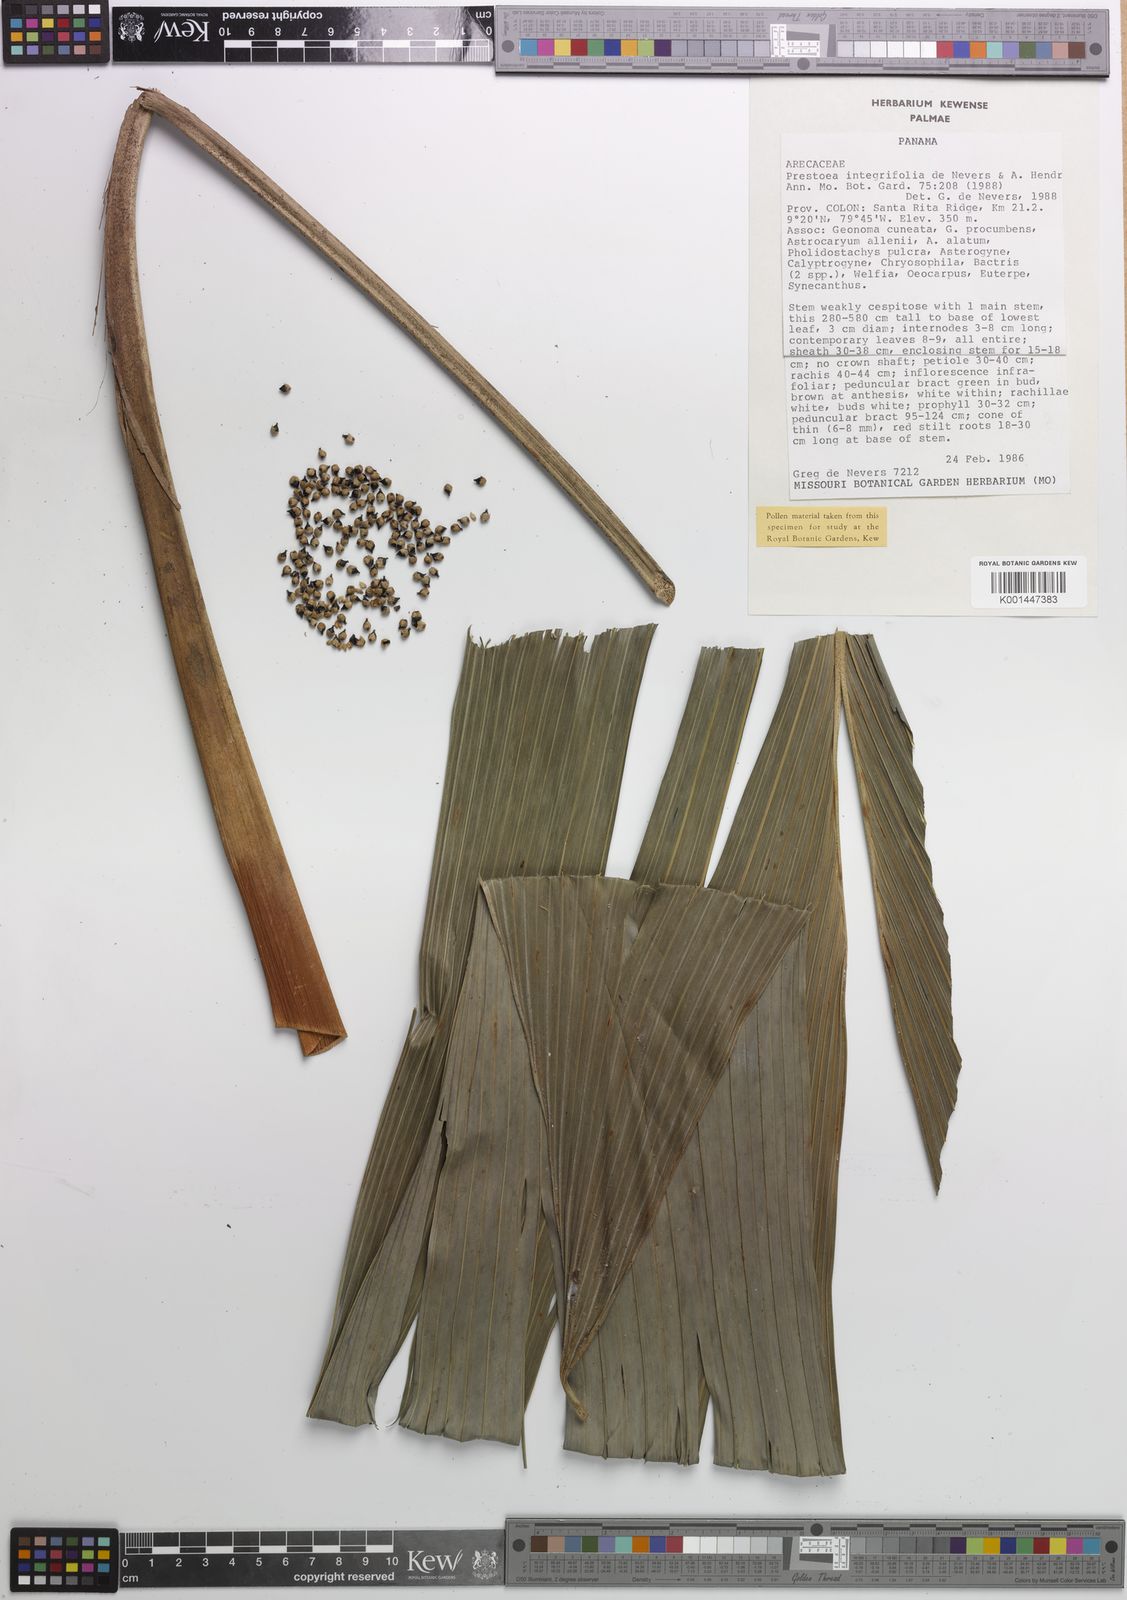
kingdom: Plantae
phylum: Tracheophyta
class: Liliopsida
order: Arecales
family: Arecaceae
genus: Prestoea
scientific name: Prestoea ensiformis
